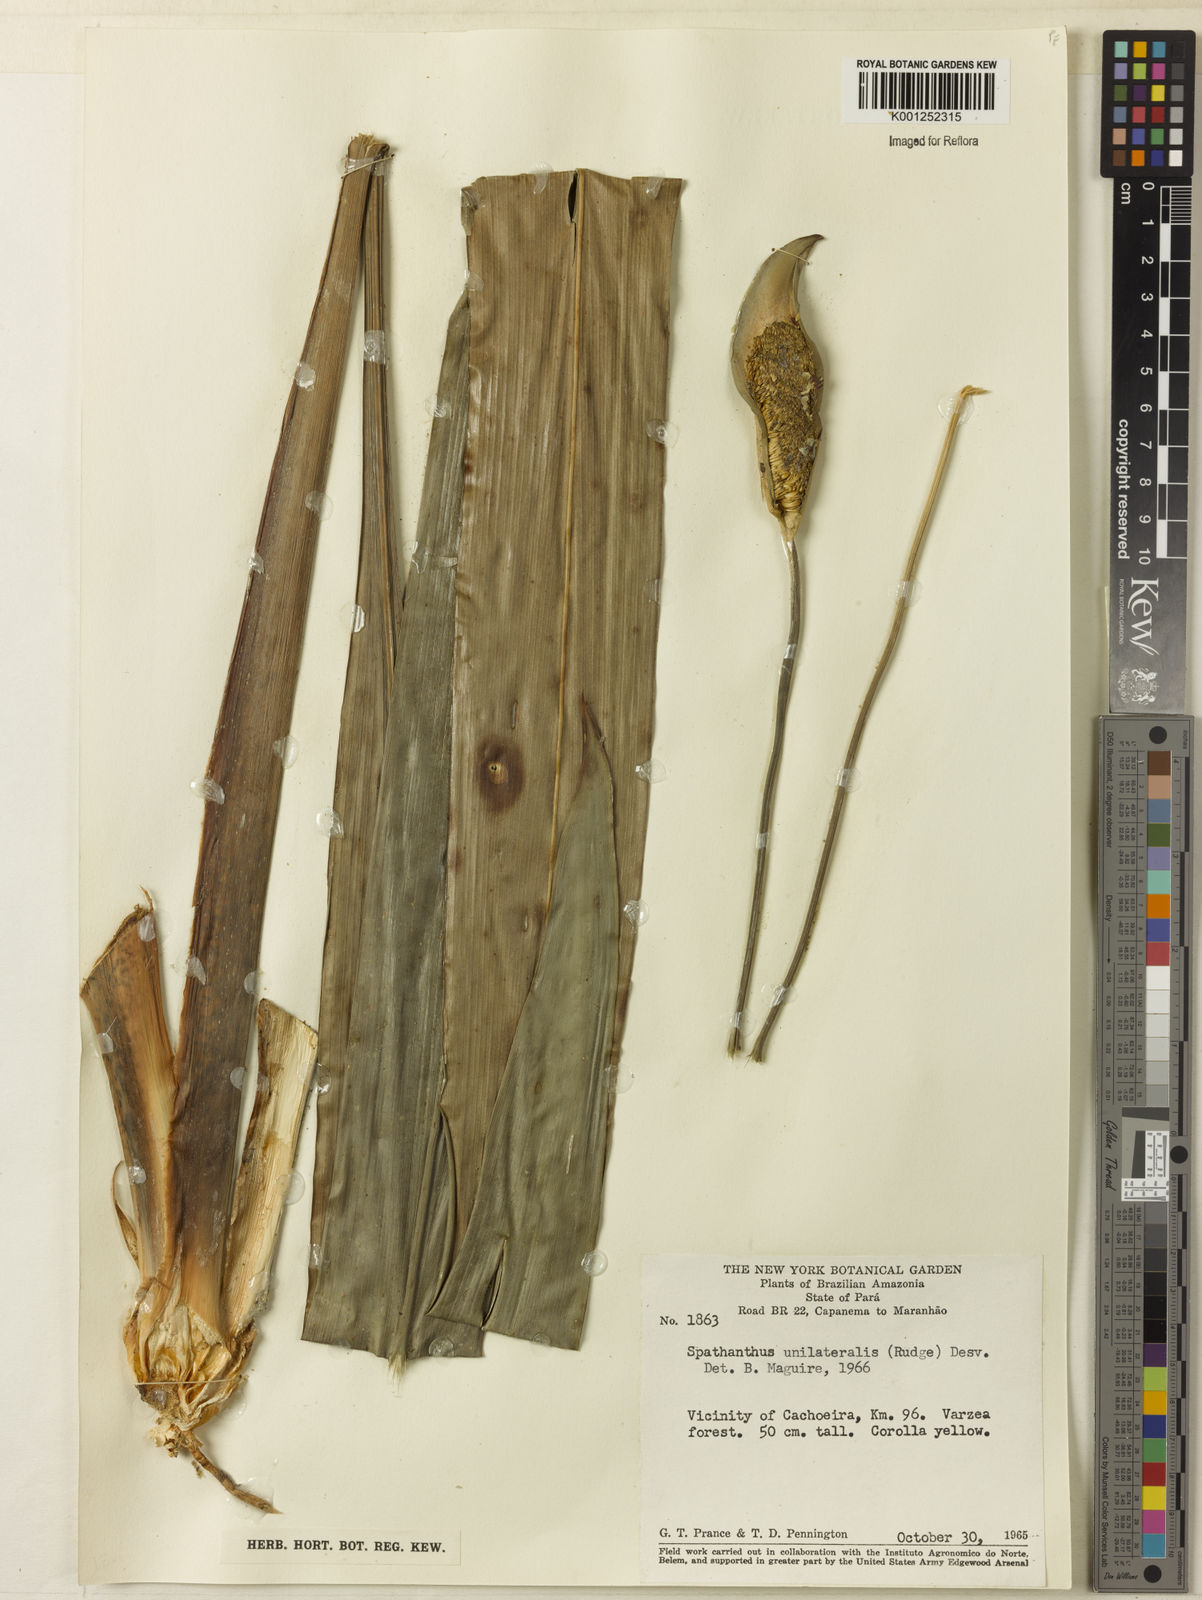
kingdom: Plantae
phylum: Tracheophyta
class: Liliopsida
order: Poales
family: Rapateaceae
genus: Spathanthus
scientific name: Spathanthus unilateralis
